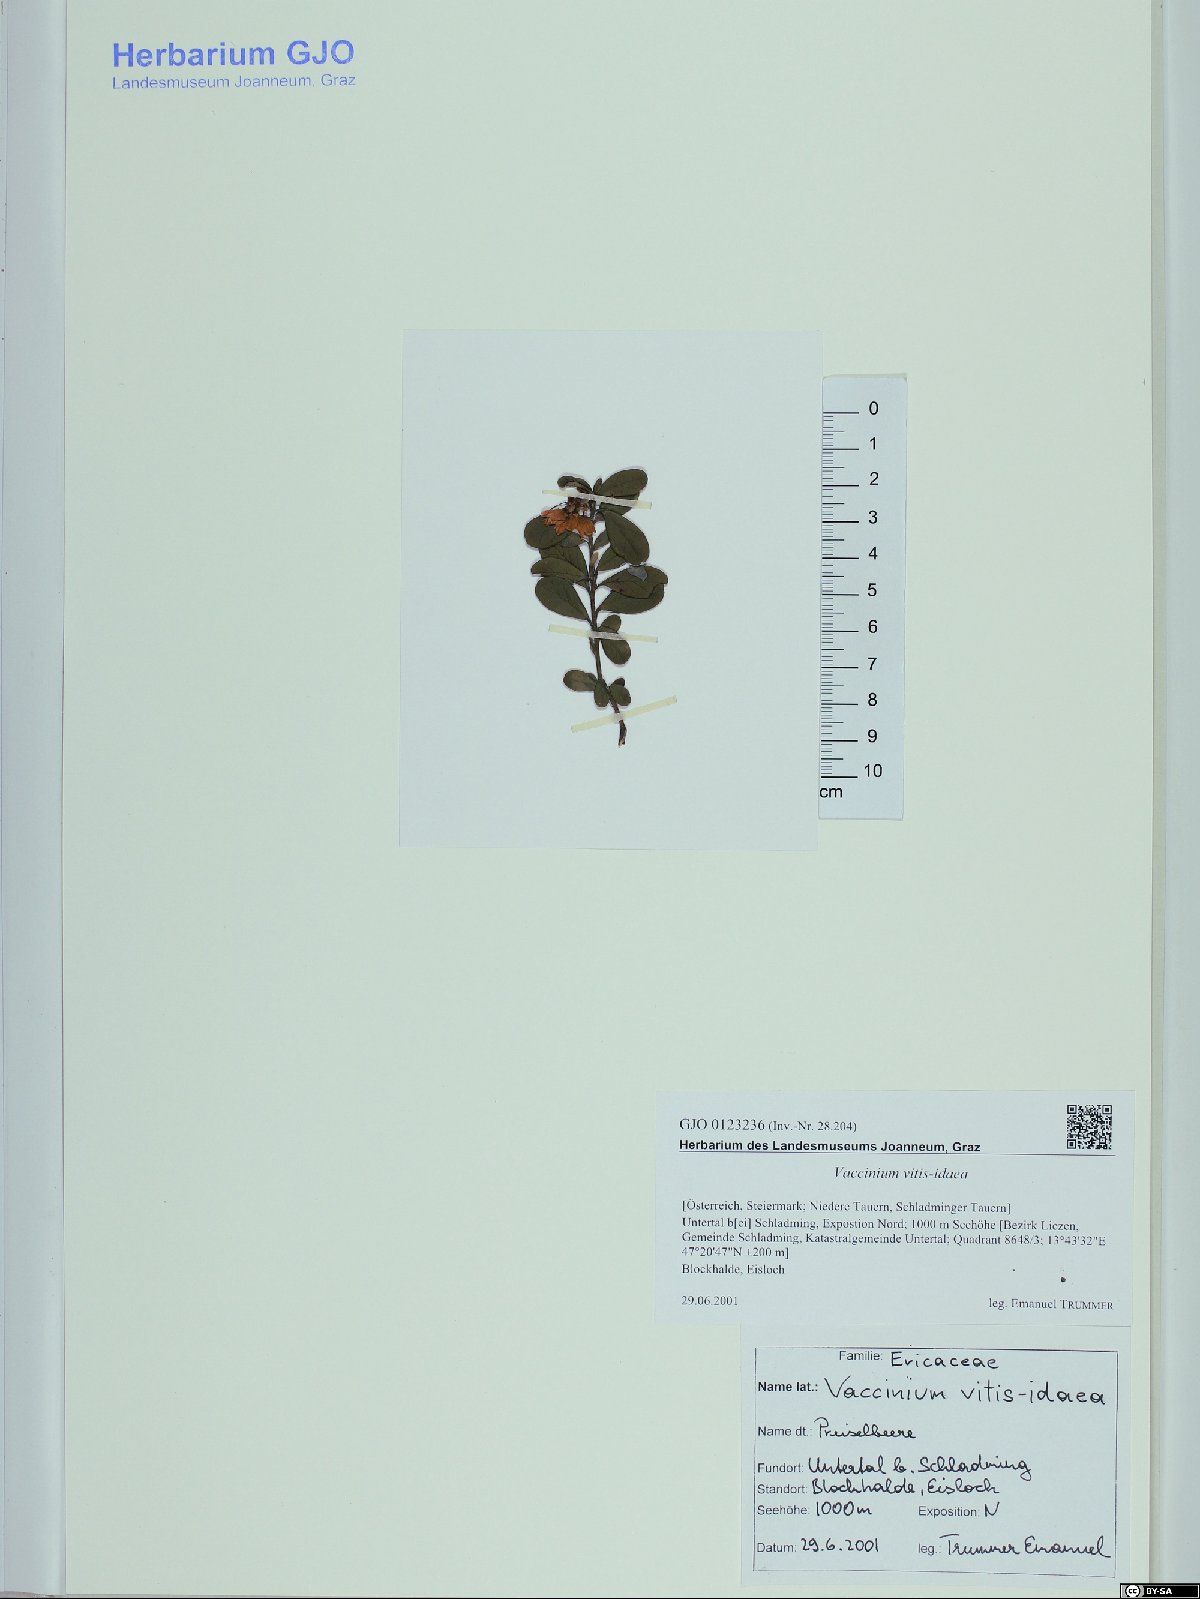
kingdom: Plantae
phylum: Tracheophyta
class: Magnoliopsida
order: Ericales
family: Ericaceae
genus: Vaccinium
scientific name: Vaccinium vitis-idaea
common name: Cowberry
